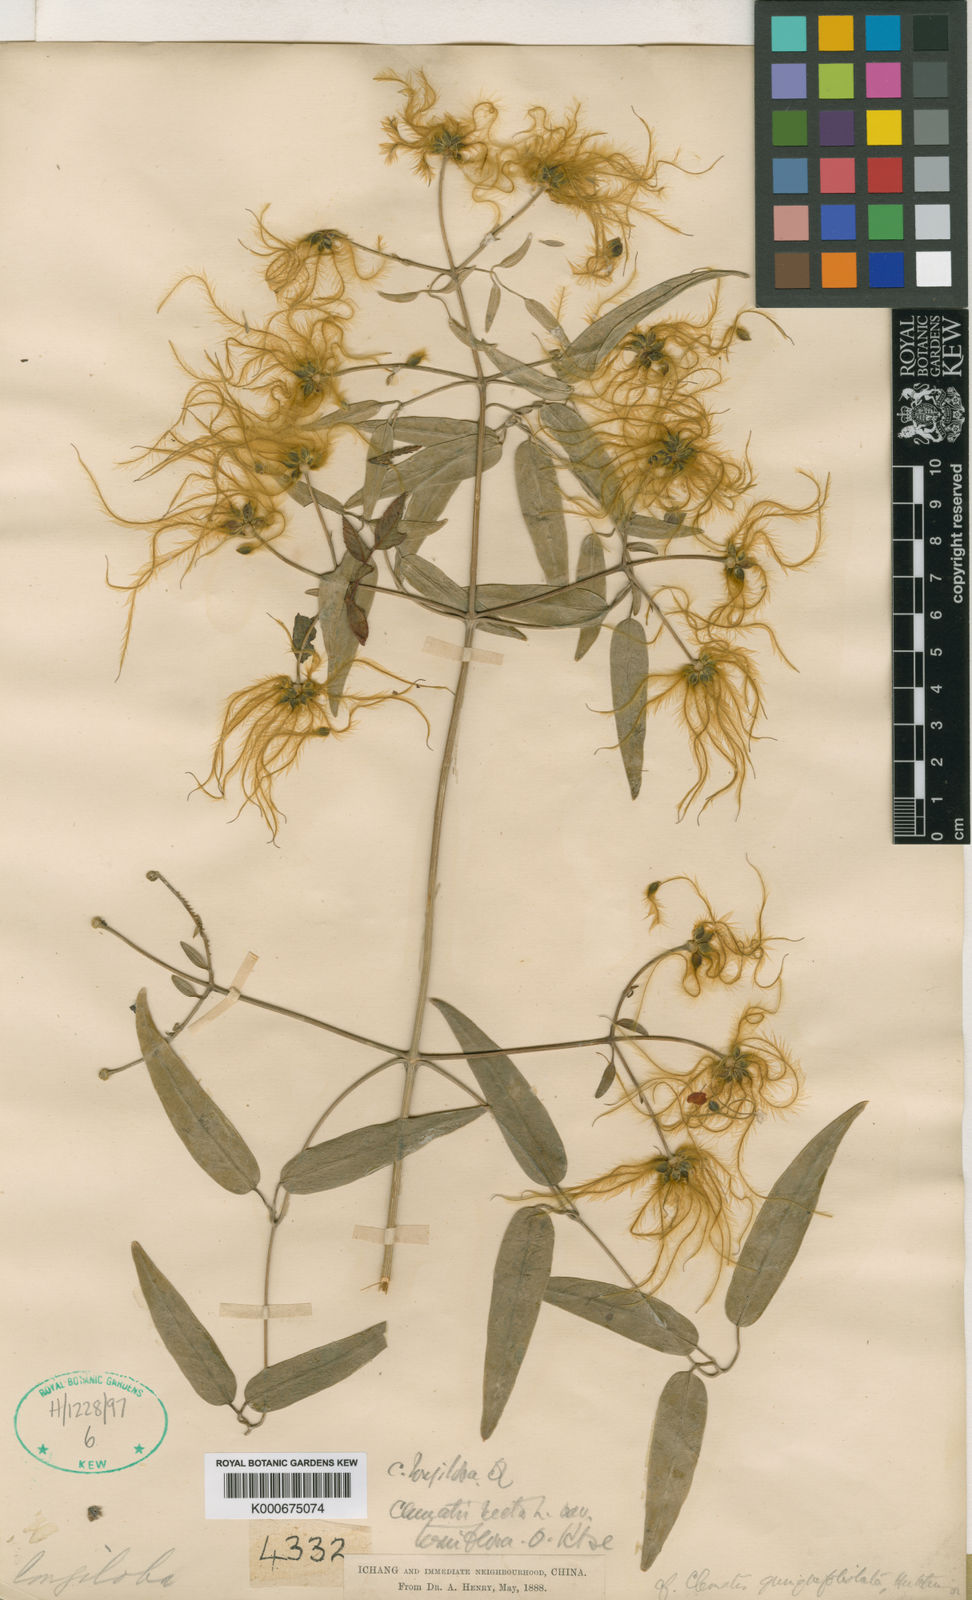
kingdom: Plantae
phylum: Tracheophyta
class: Magnoliopsida
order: Ranunculales
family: Ranunculaceae
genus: Clematis
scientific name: Clematis quinquefoliolata
